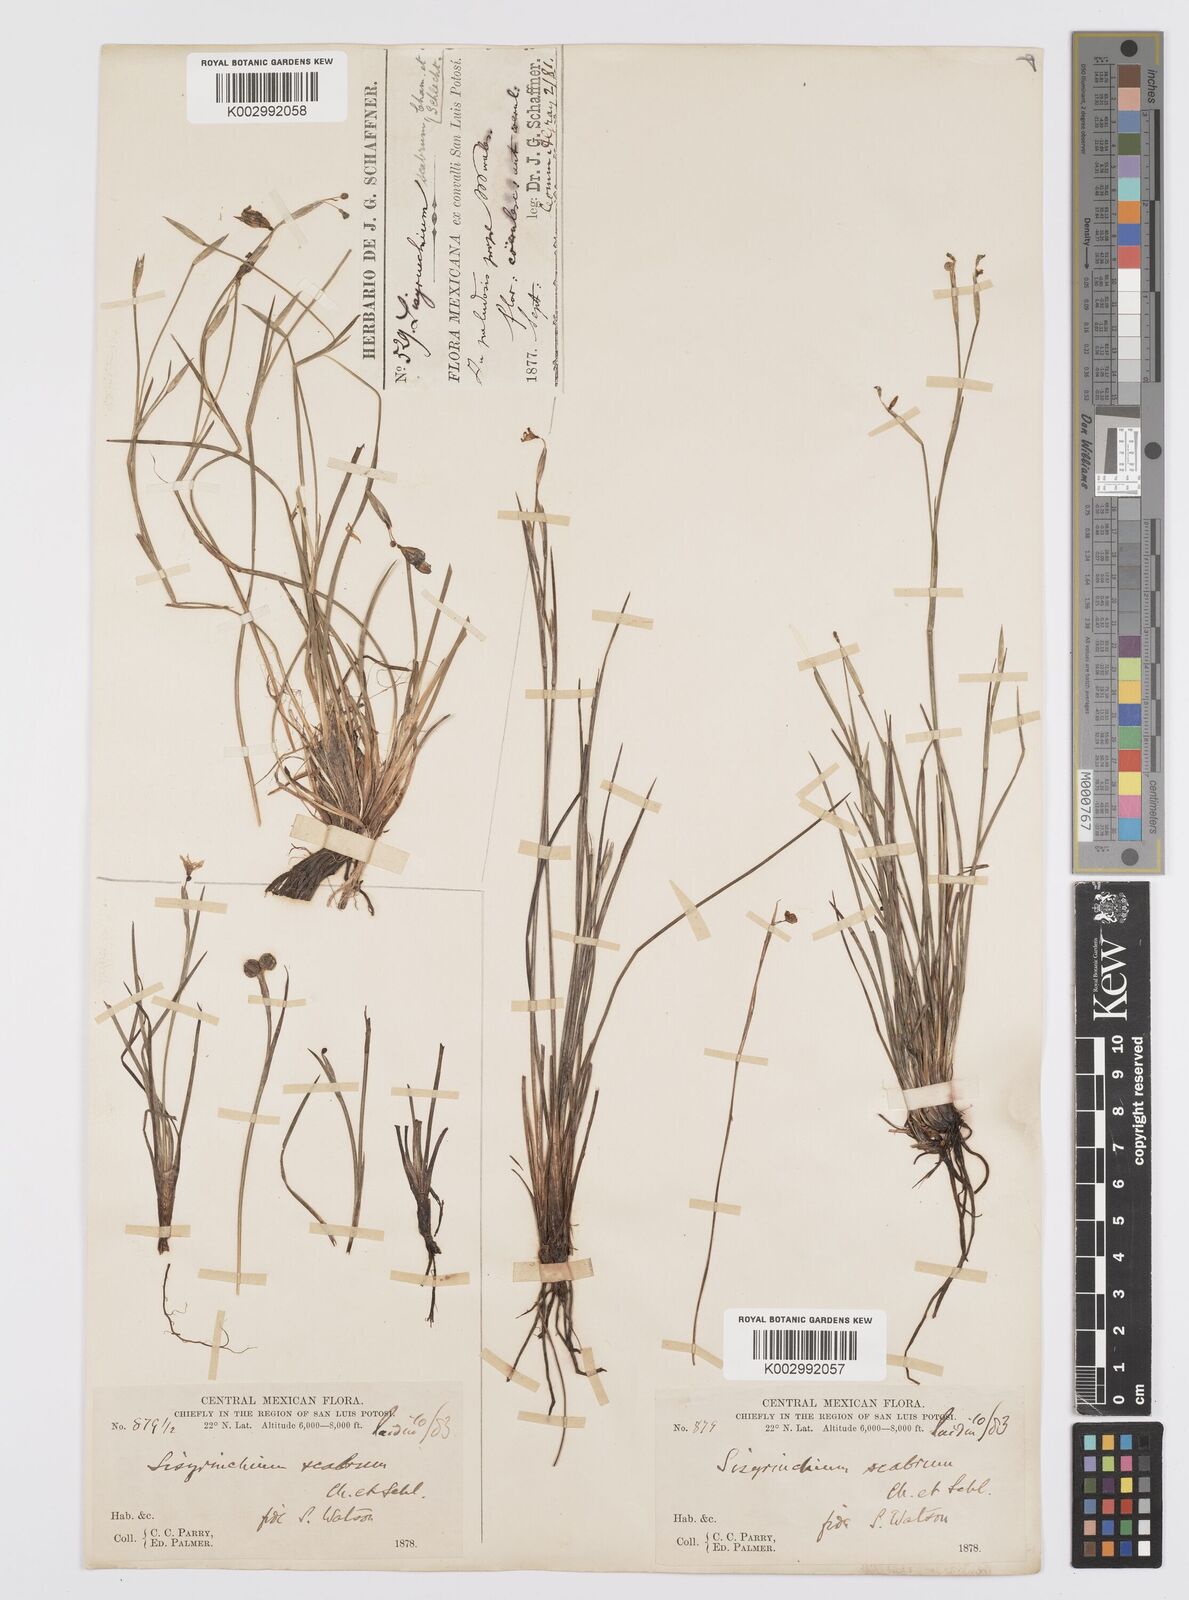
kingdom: Plantae
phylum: Tracheophyta
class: Liliopsida
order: Asparagales
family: Iridaceae
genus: Sisyrinchium
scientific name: Sisyrinchium scabrum
